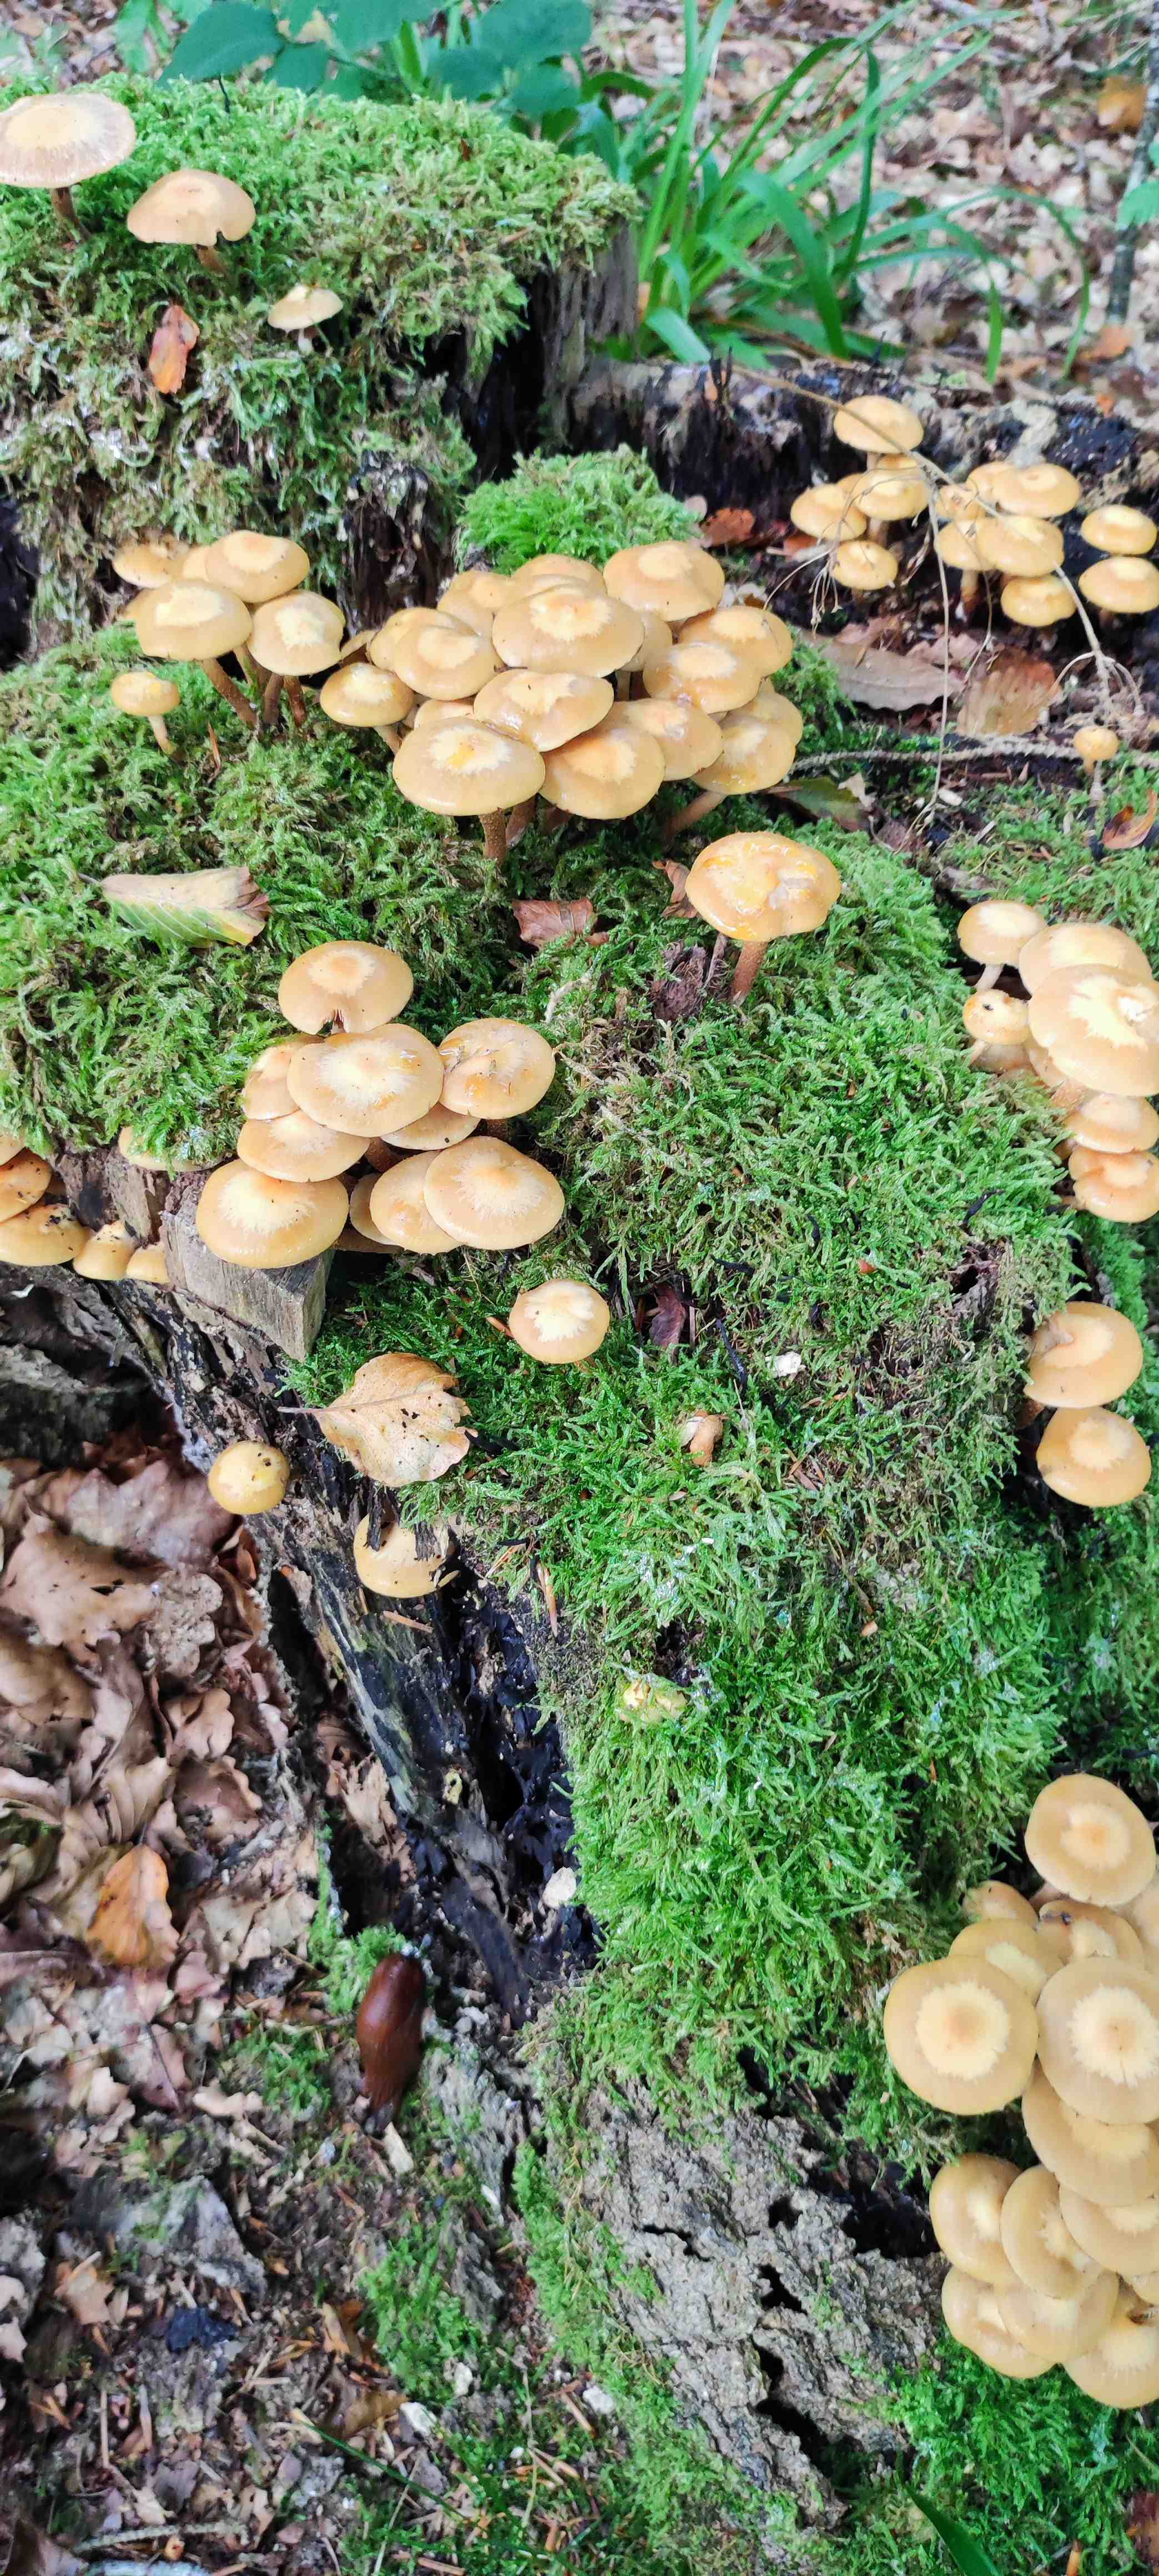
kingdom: Fungi
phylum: Basidiomycota
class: Agaricomycetes
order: Agaricales
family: Strophariaceae
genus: Kuehneromyces
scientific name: Kuehneromyces mutabilis
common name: foranderlig skælhat
